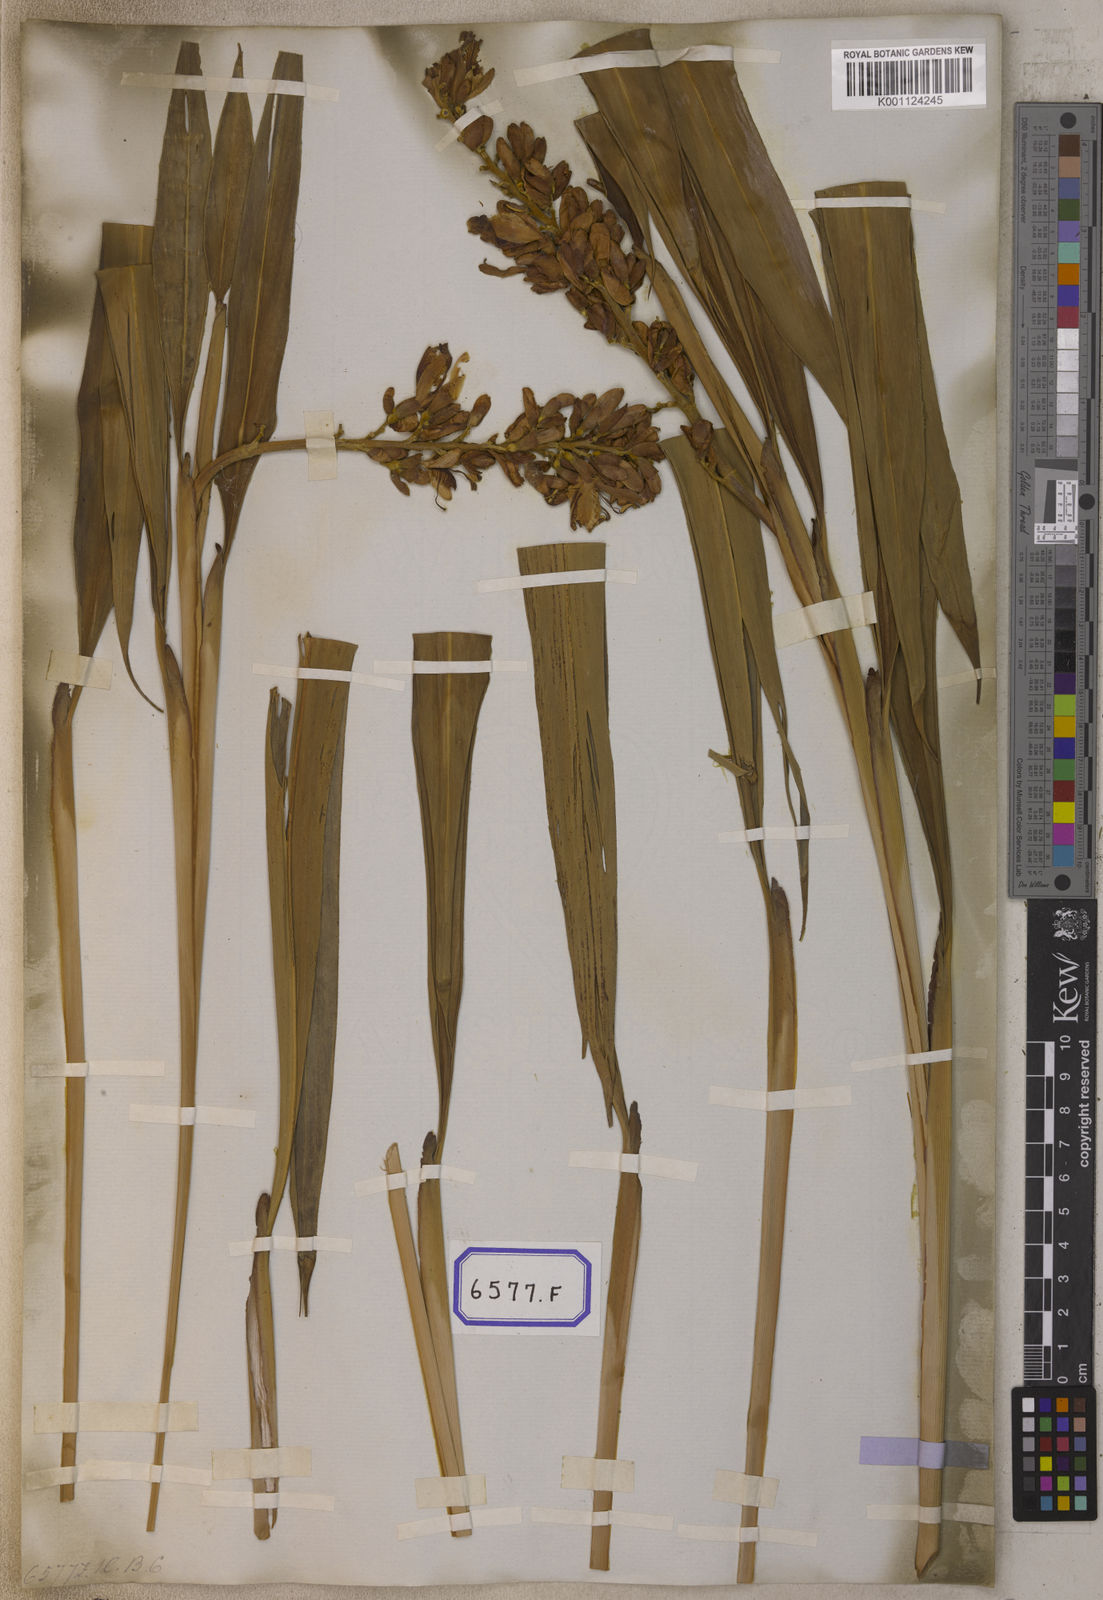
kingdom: Plantae
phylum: Tracheophyta
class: Liliopsida
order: Zingiberales
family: Zingiberaceae
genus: Alpinia
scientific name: Alpinia calcarata
